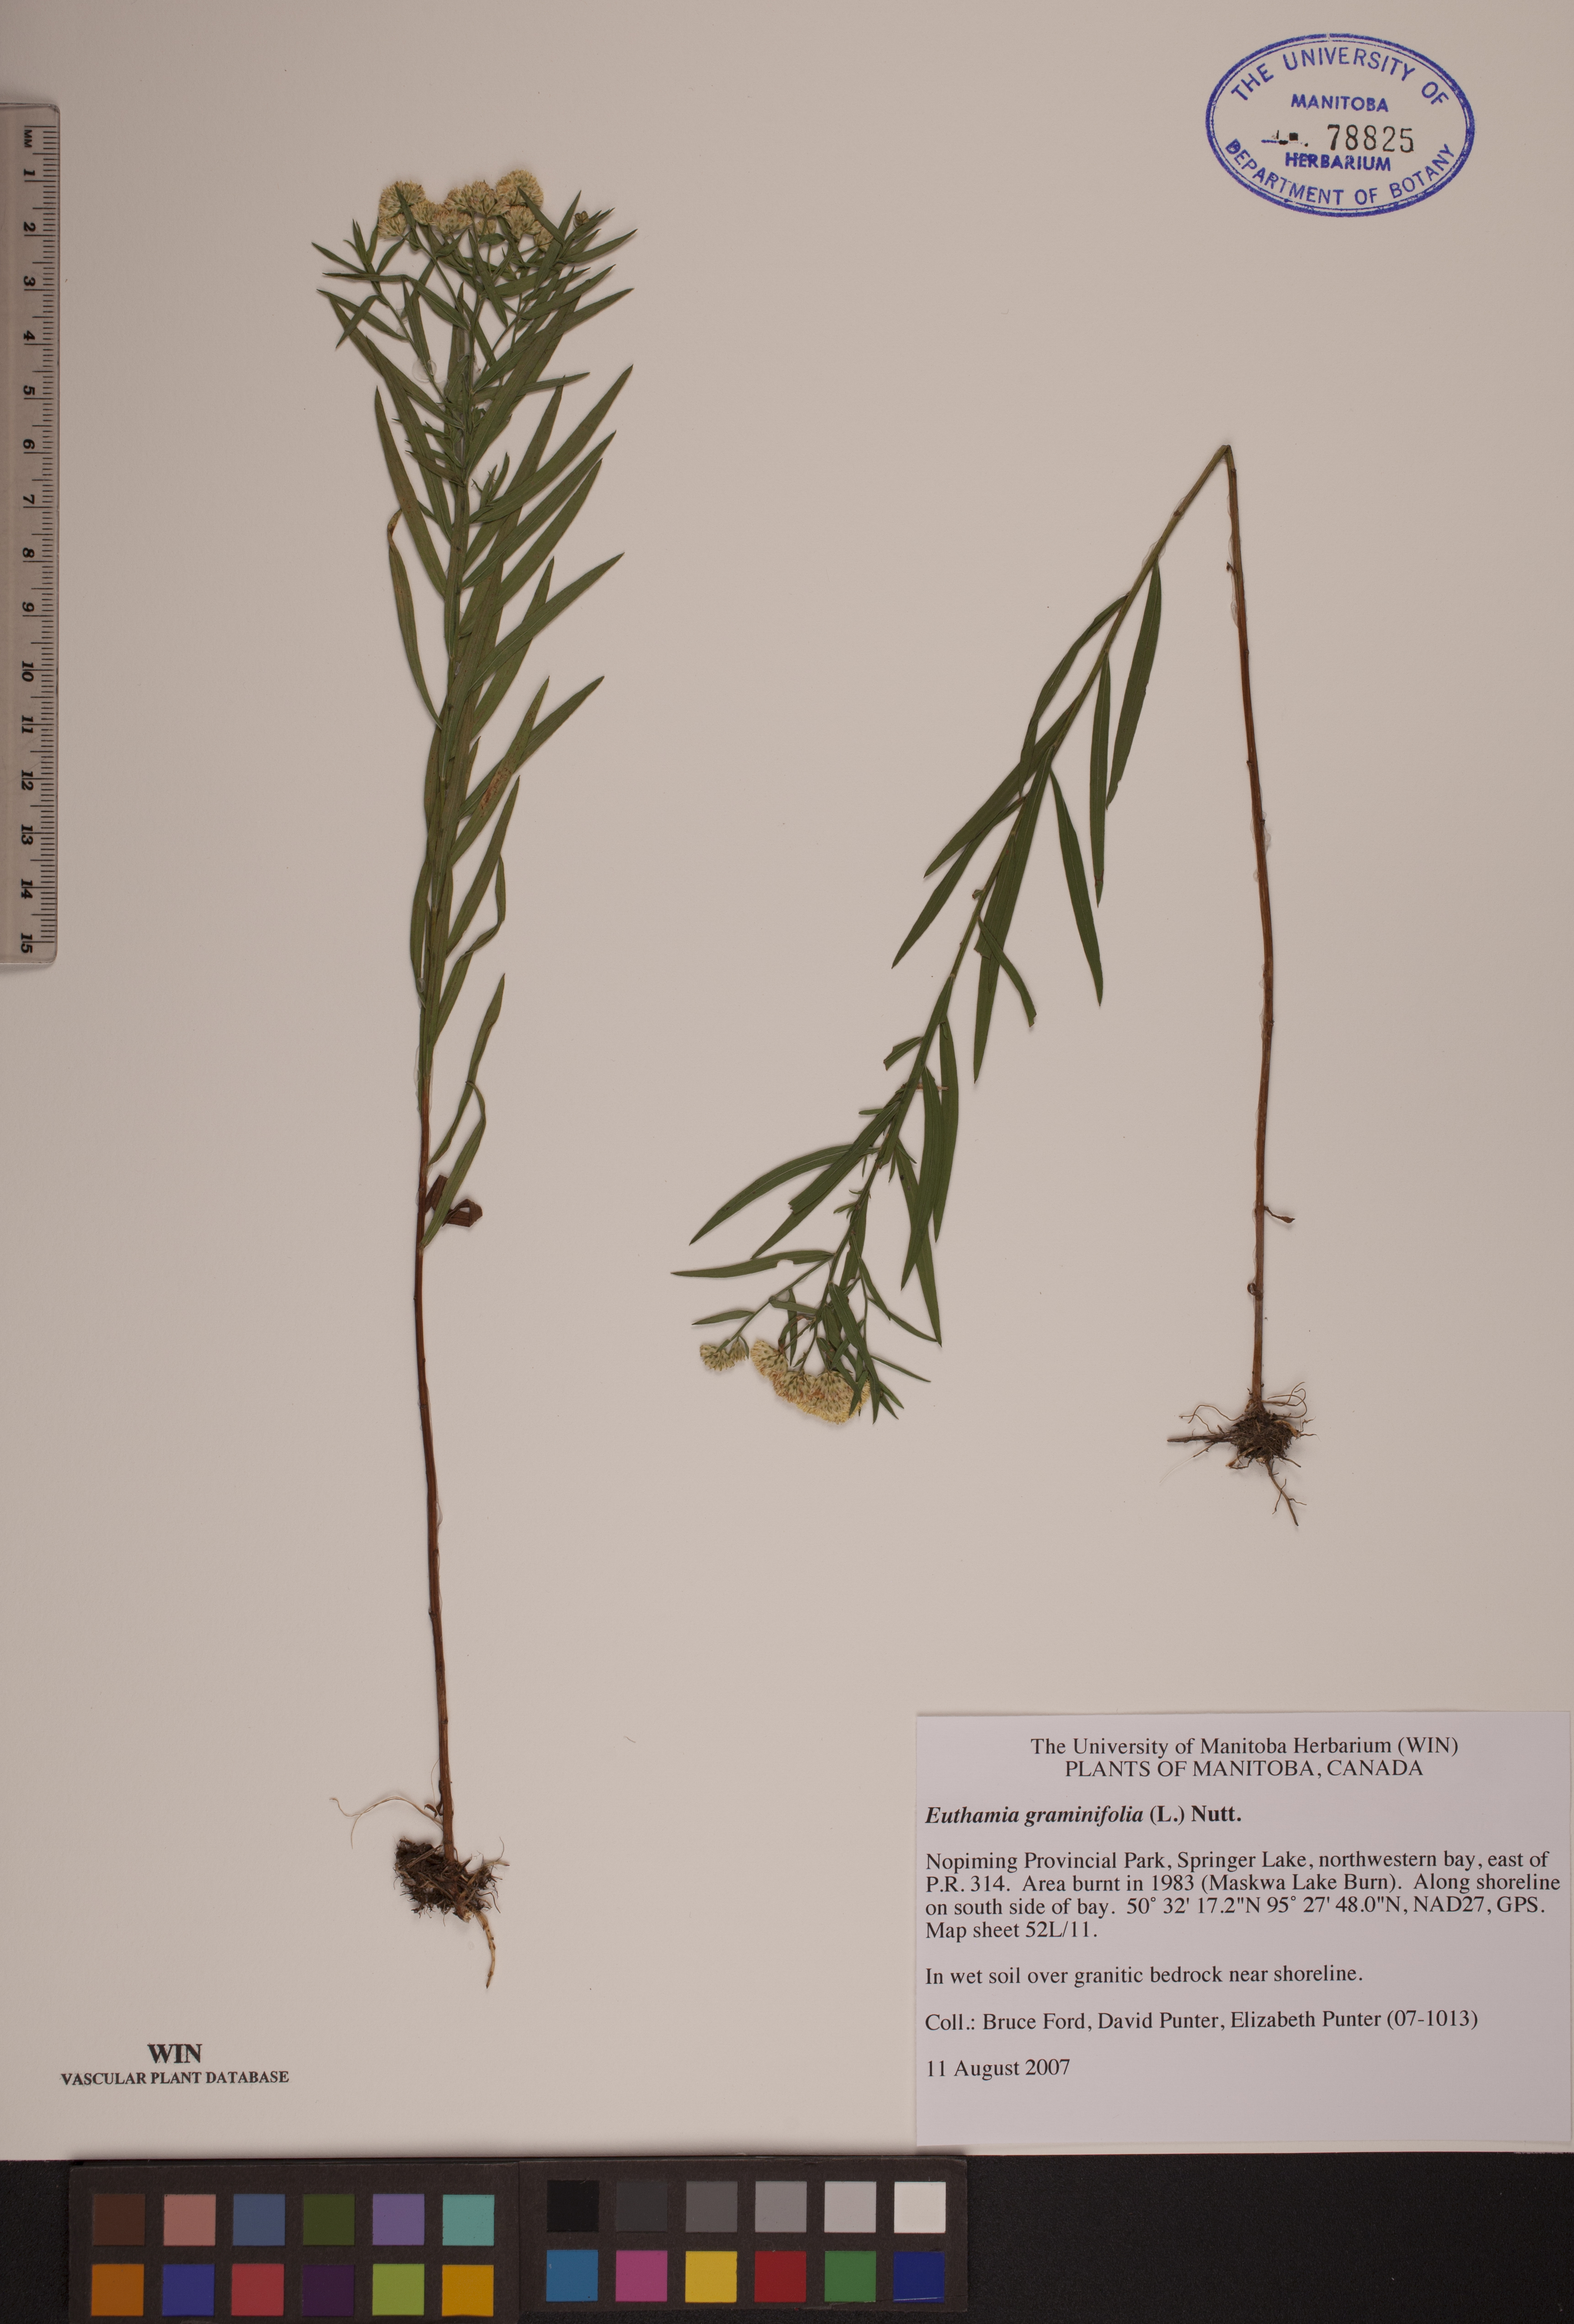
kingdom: Plantae
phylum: Tracheophyta
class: Magnoliopsida
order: Asterales
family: Asteraceae
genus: Euthamia
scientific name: Euthamia graminifolia
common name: Common goldentop
